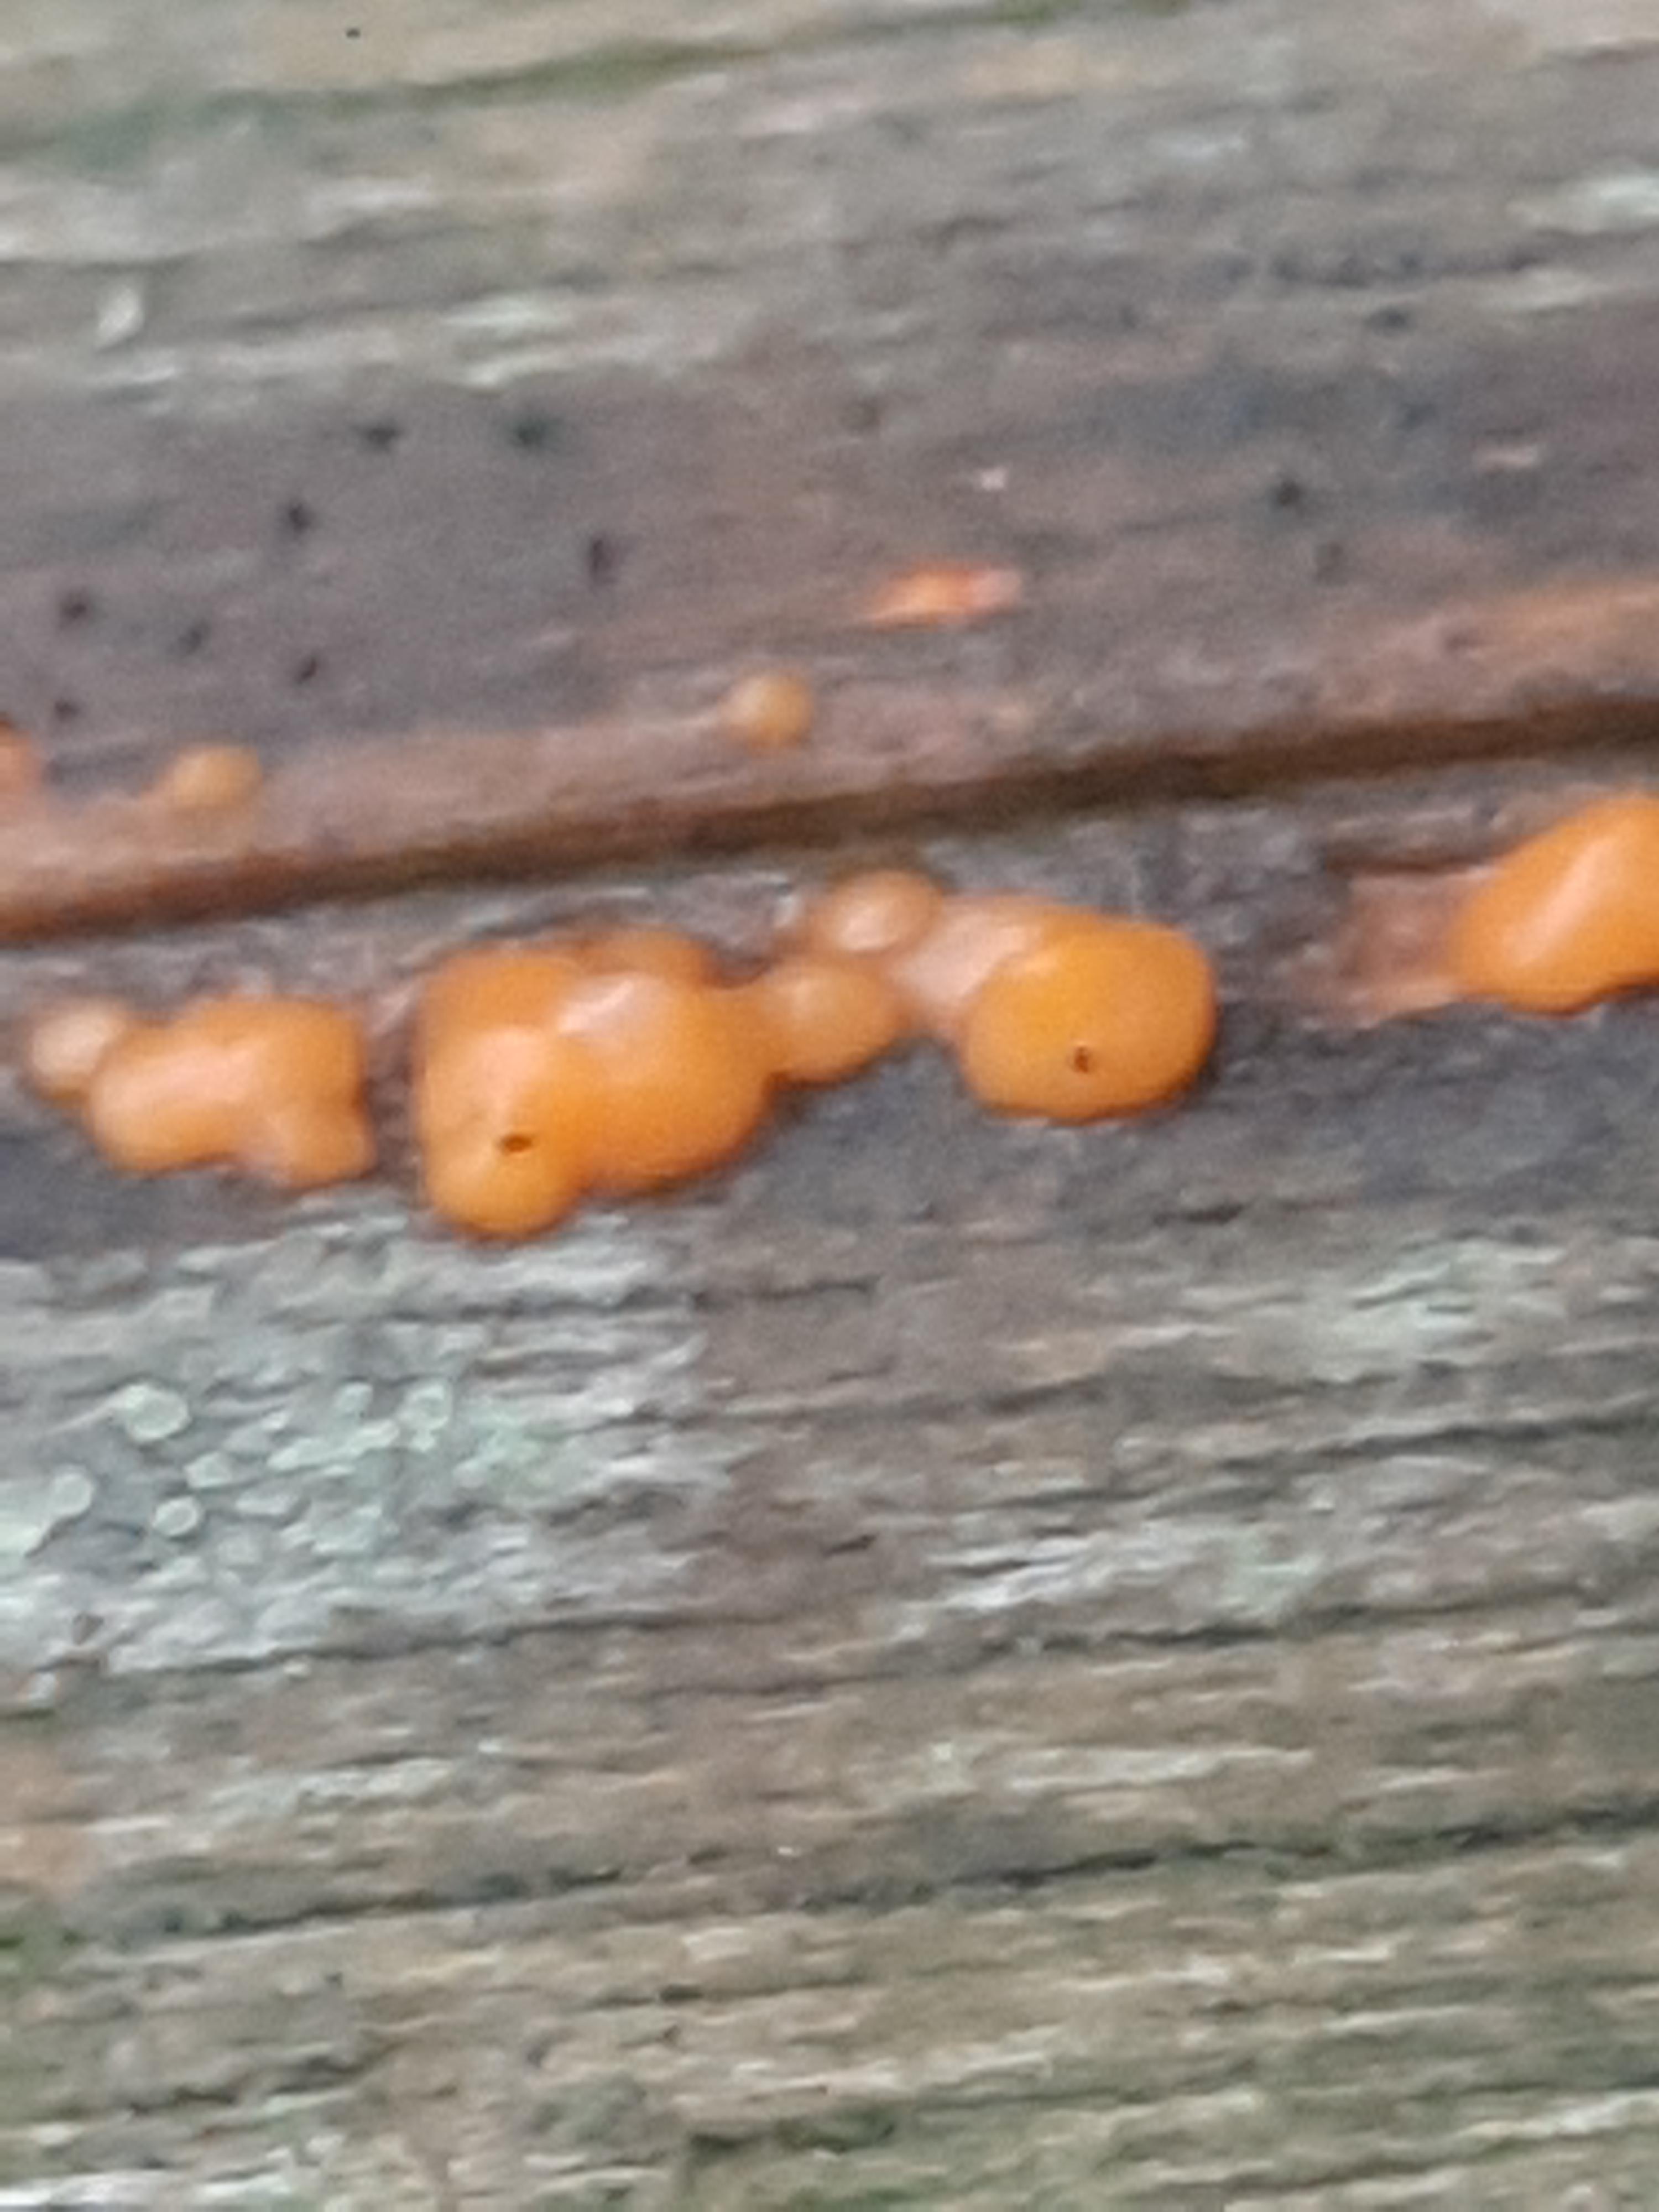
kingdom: Fungi
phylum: Basidiomycota
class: Dacrymycetes
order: Dacrymycetales
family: Dacrymycetaceae
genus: Dacrymyces
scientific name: Dacrymyces stillatus
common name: almindelig tåresvamp
